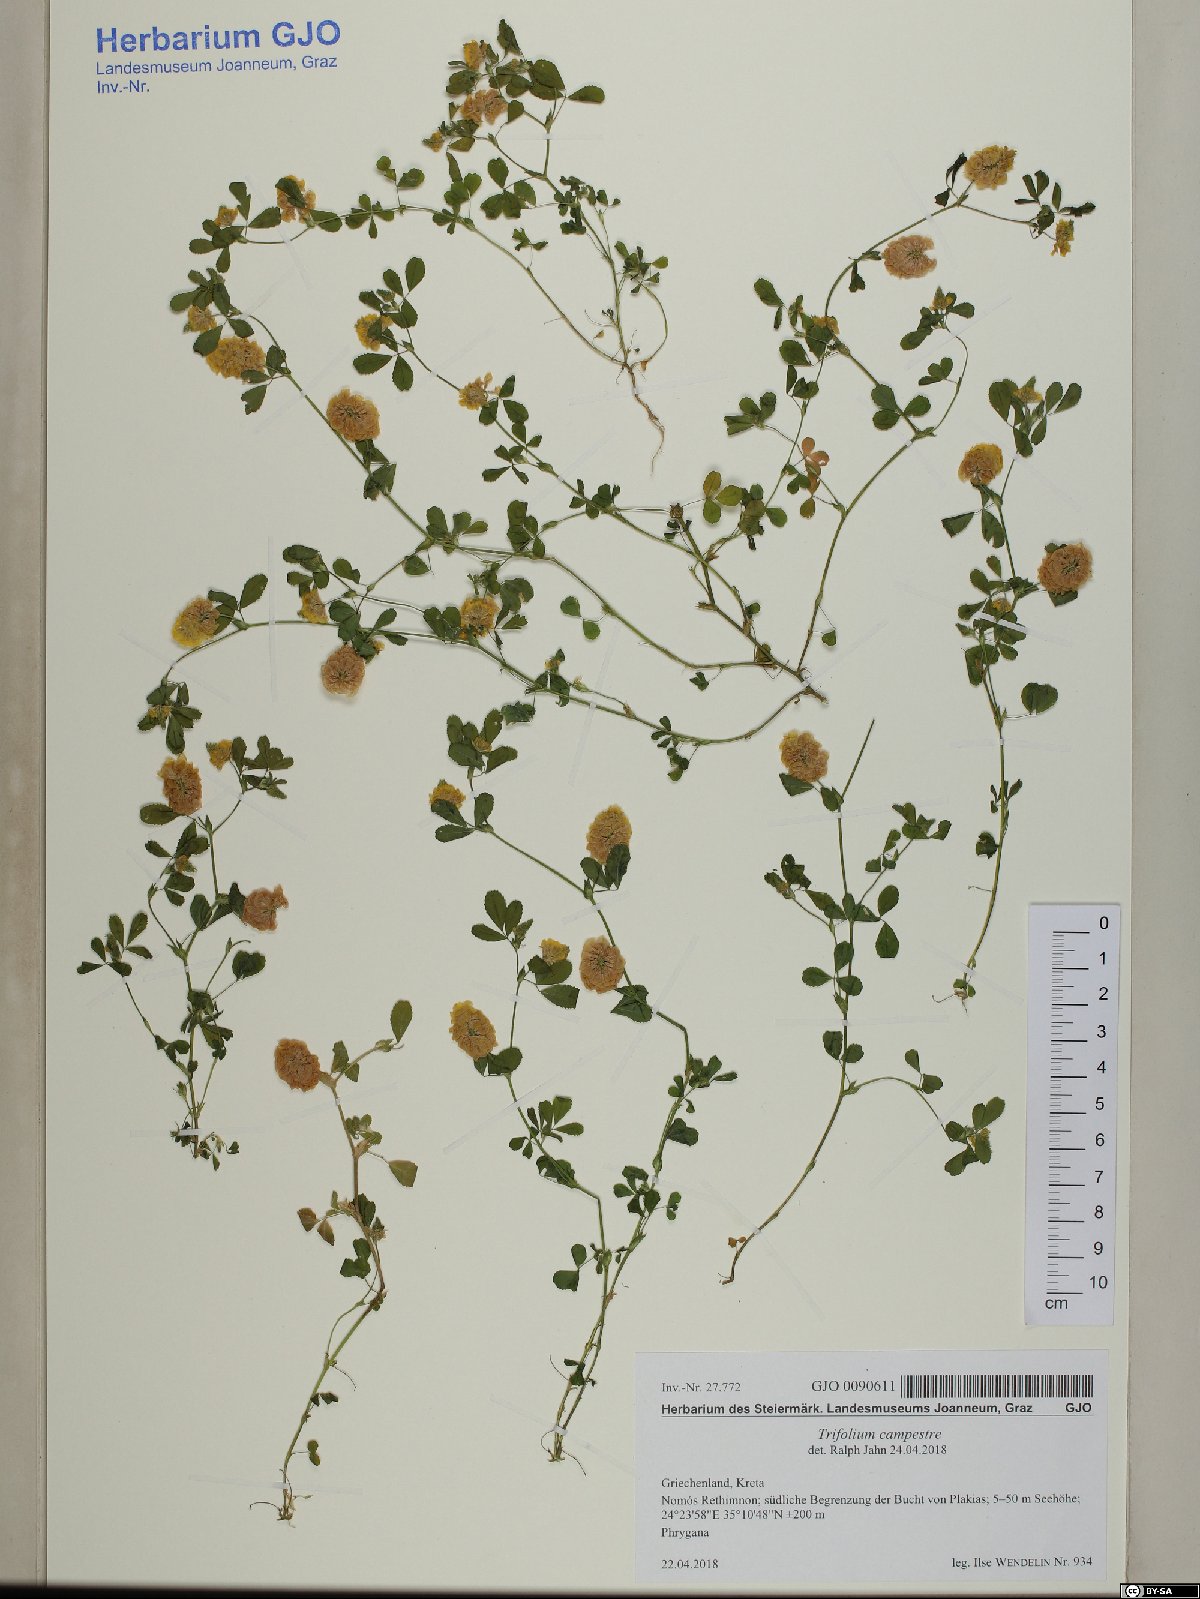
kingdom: Plantae
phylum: Tracheophyta
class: Magnoliopsida
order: Fabales
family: Fabaceae
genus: Trifolium
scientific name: Trifolium campestre
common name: Field clover
